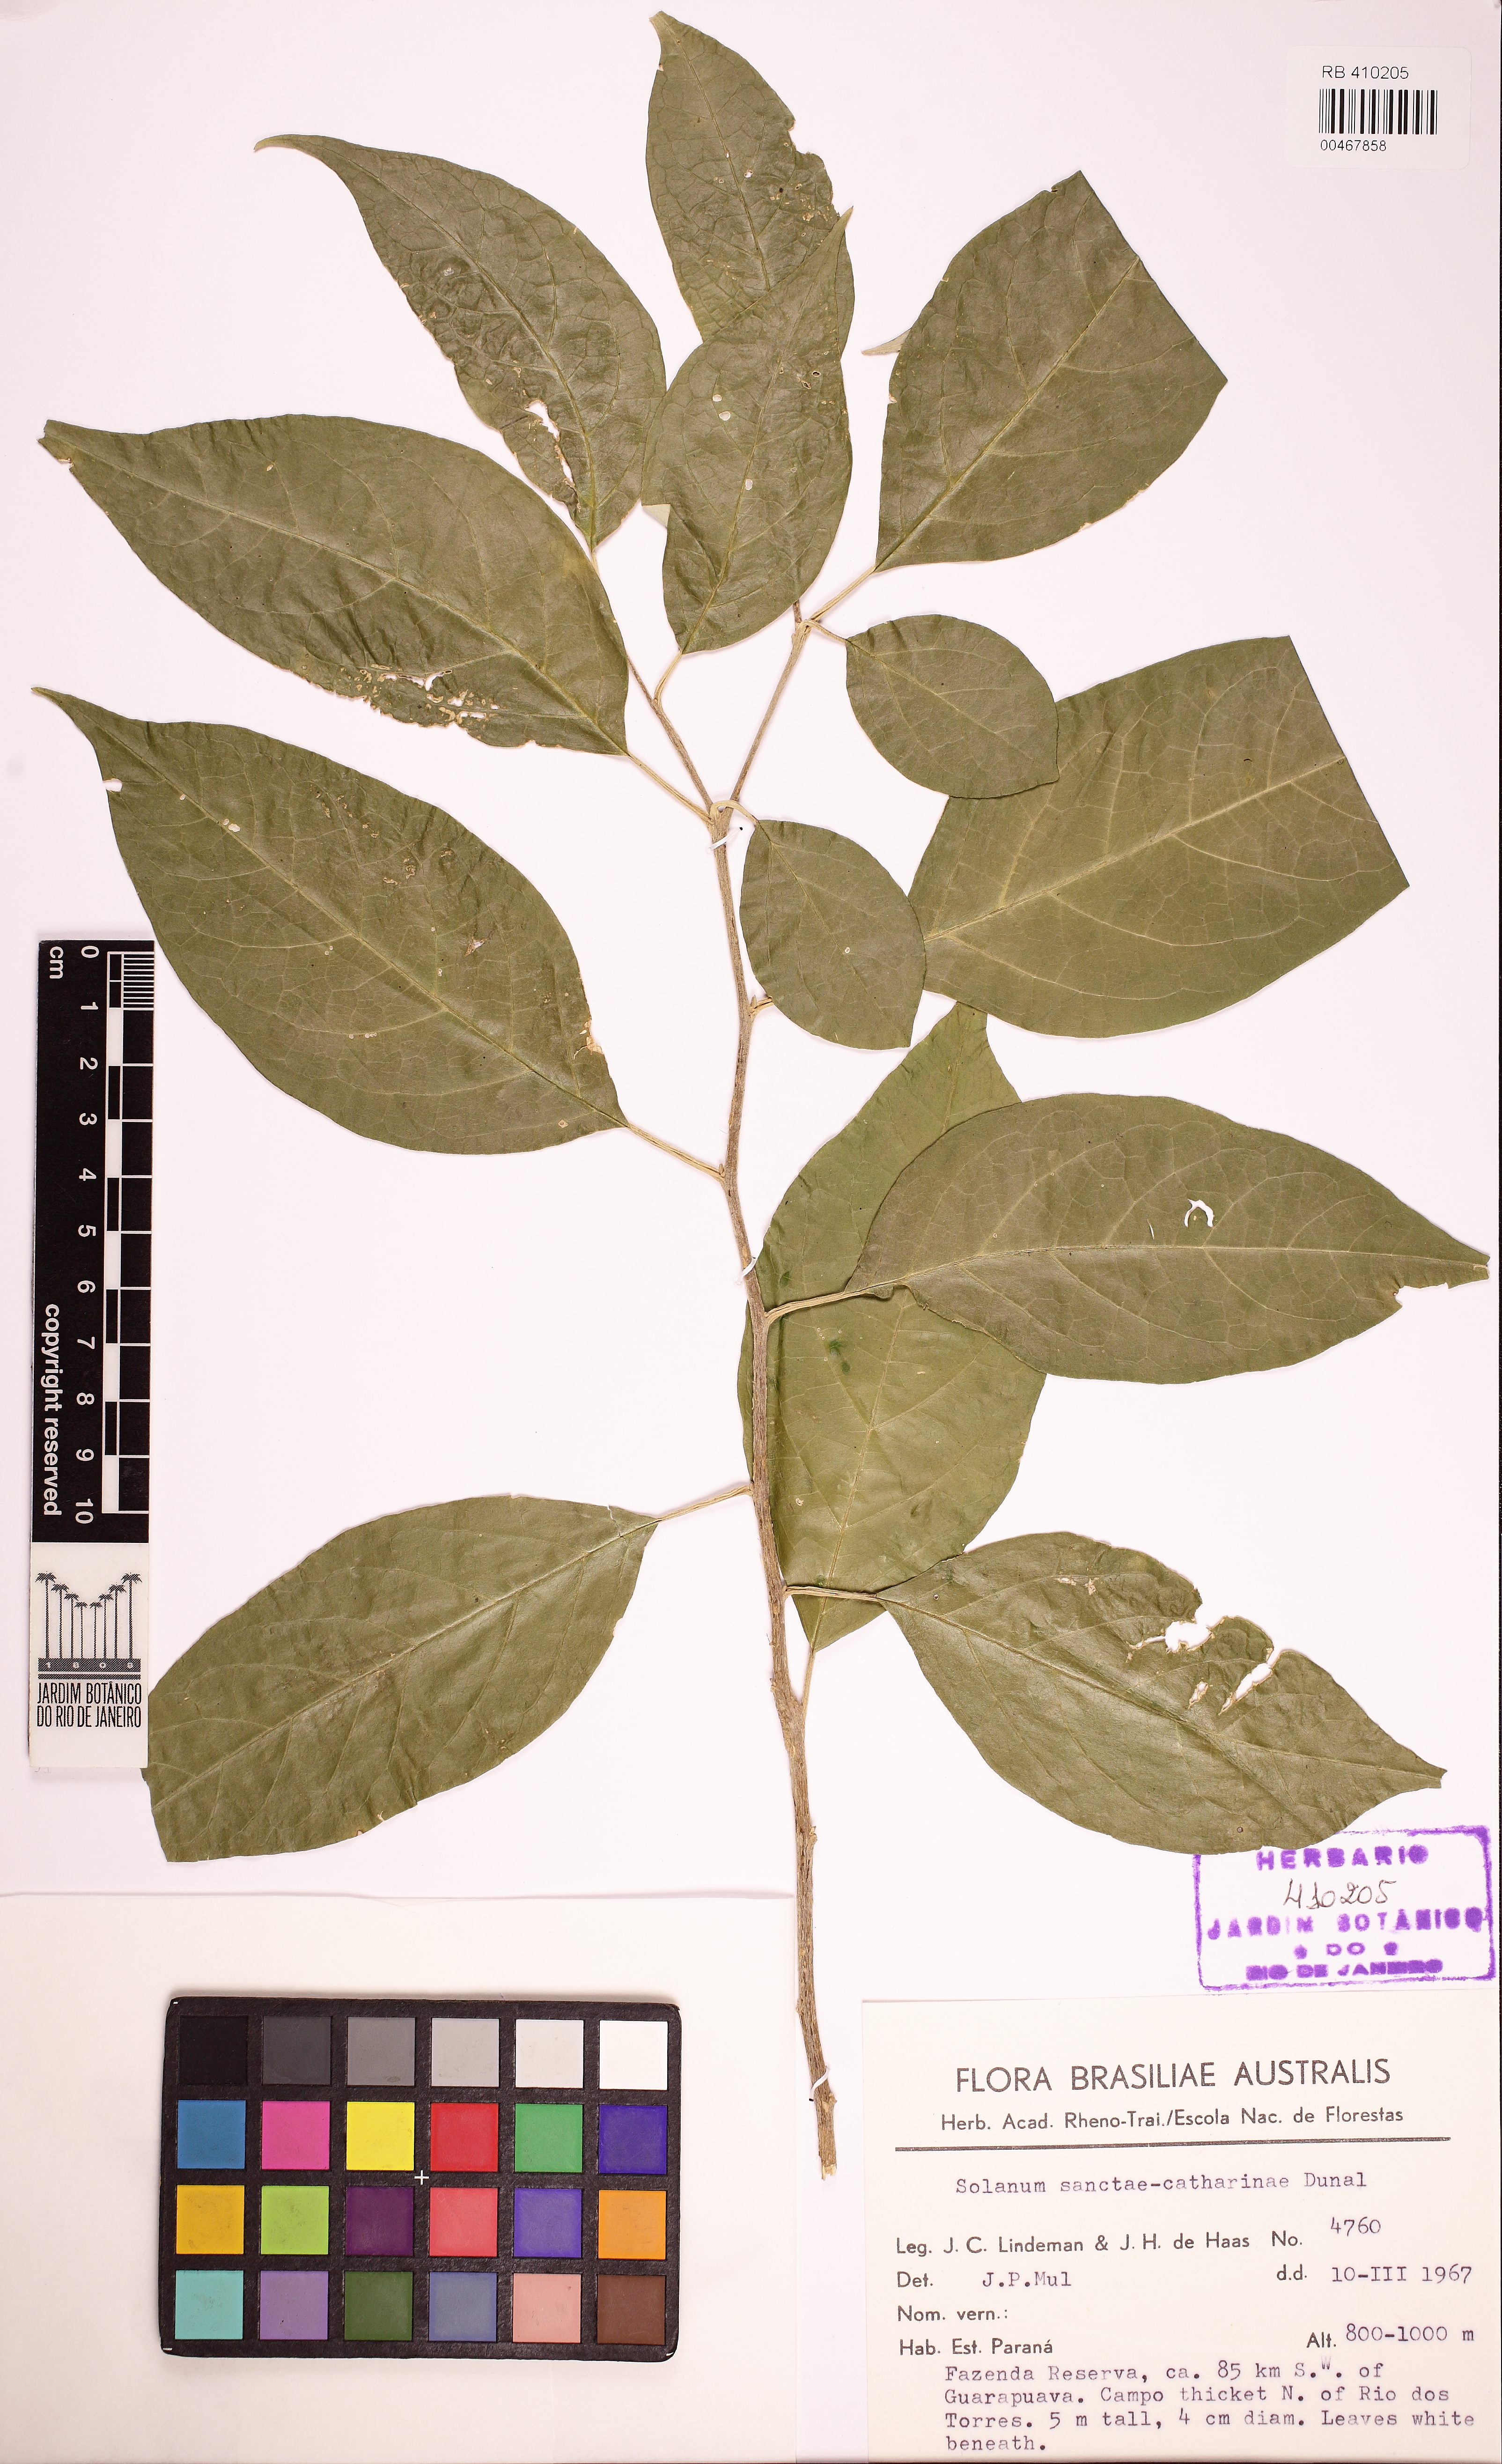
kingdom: Plantae
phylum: Tracheophyta
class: Magnoliopsida
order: Solanales
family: Solanaceae
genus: Solanum
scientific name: Solanum sanctae-catharinae
